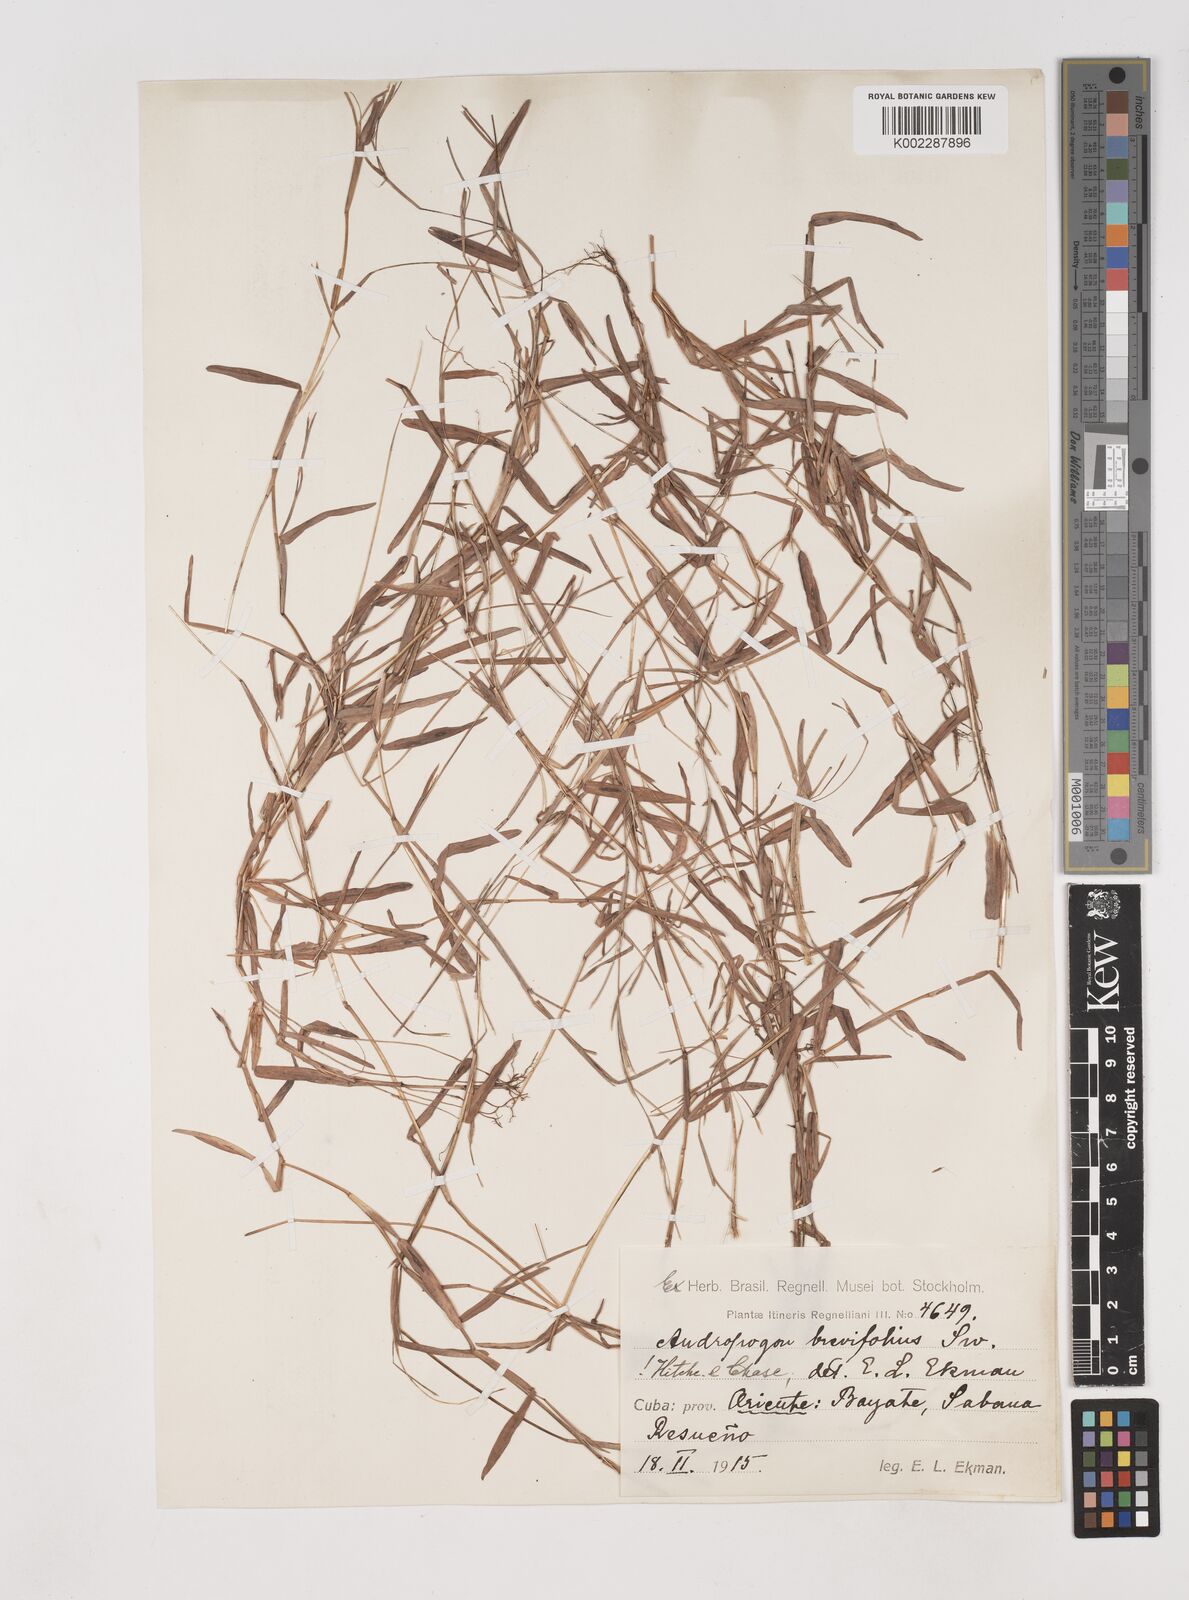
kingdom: Plantae
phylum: Tracheophyta
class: Liliopsida
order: Poales
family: Poaceae
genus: Schizachyrium
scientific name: Schizachyrium brevifolium
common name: Serillo dulce
